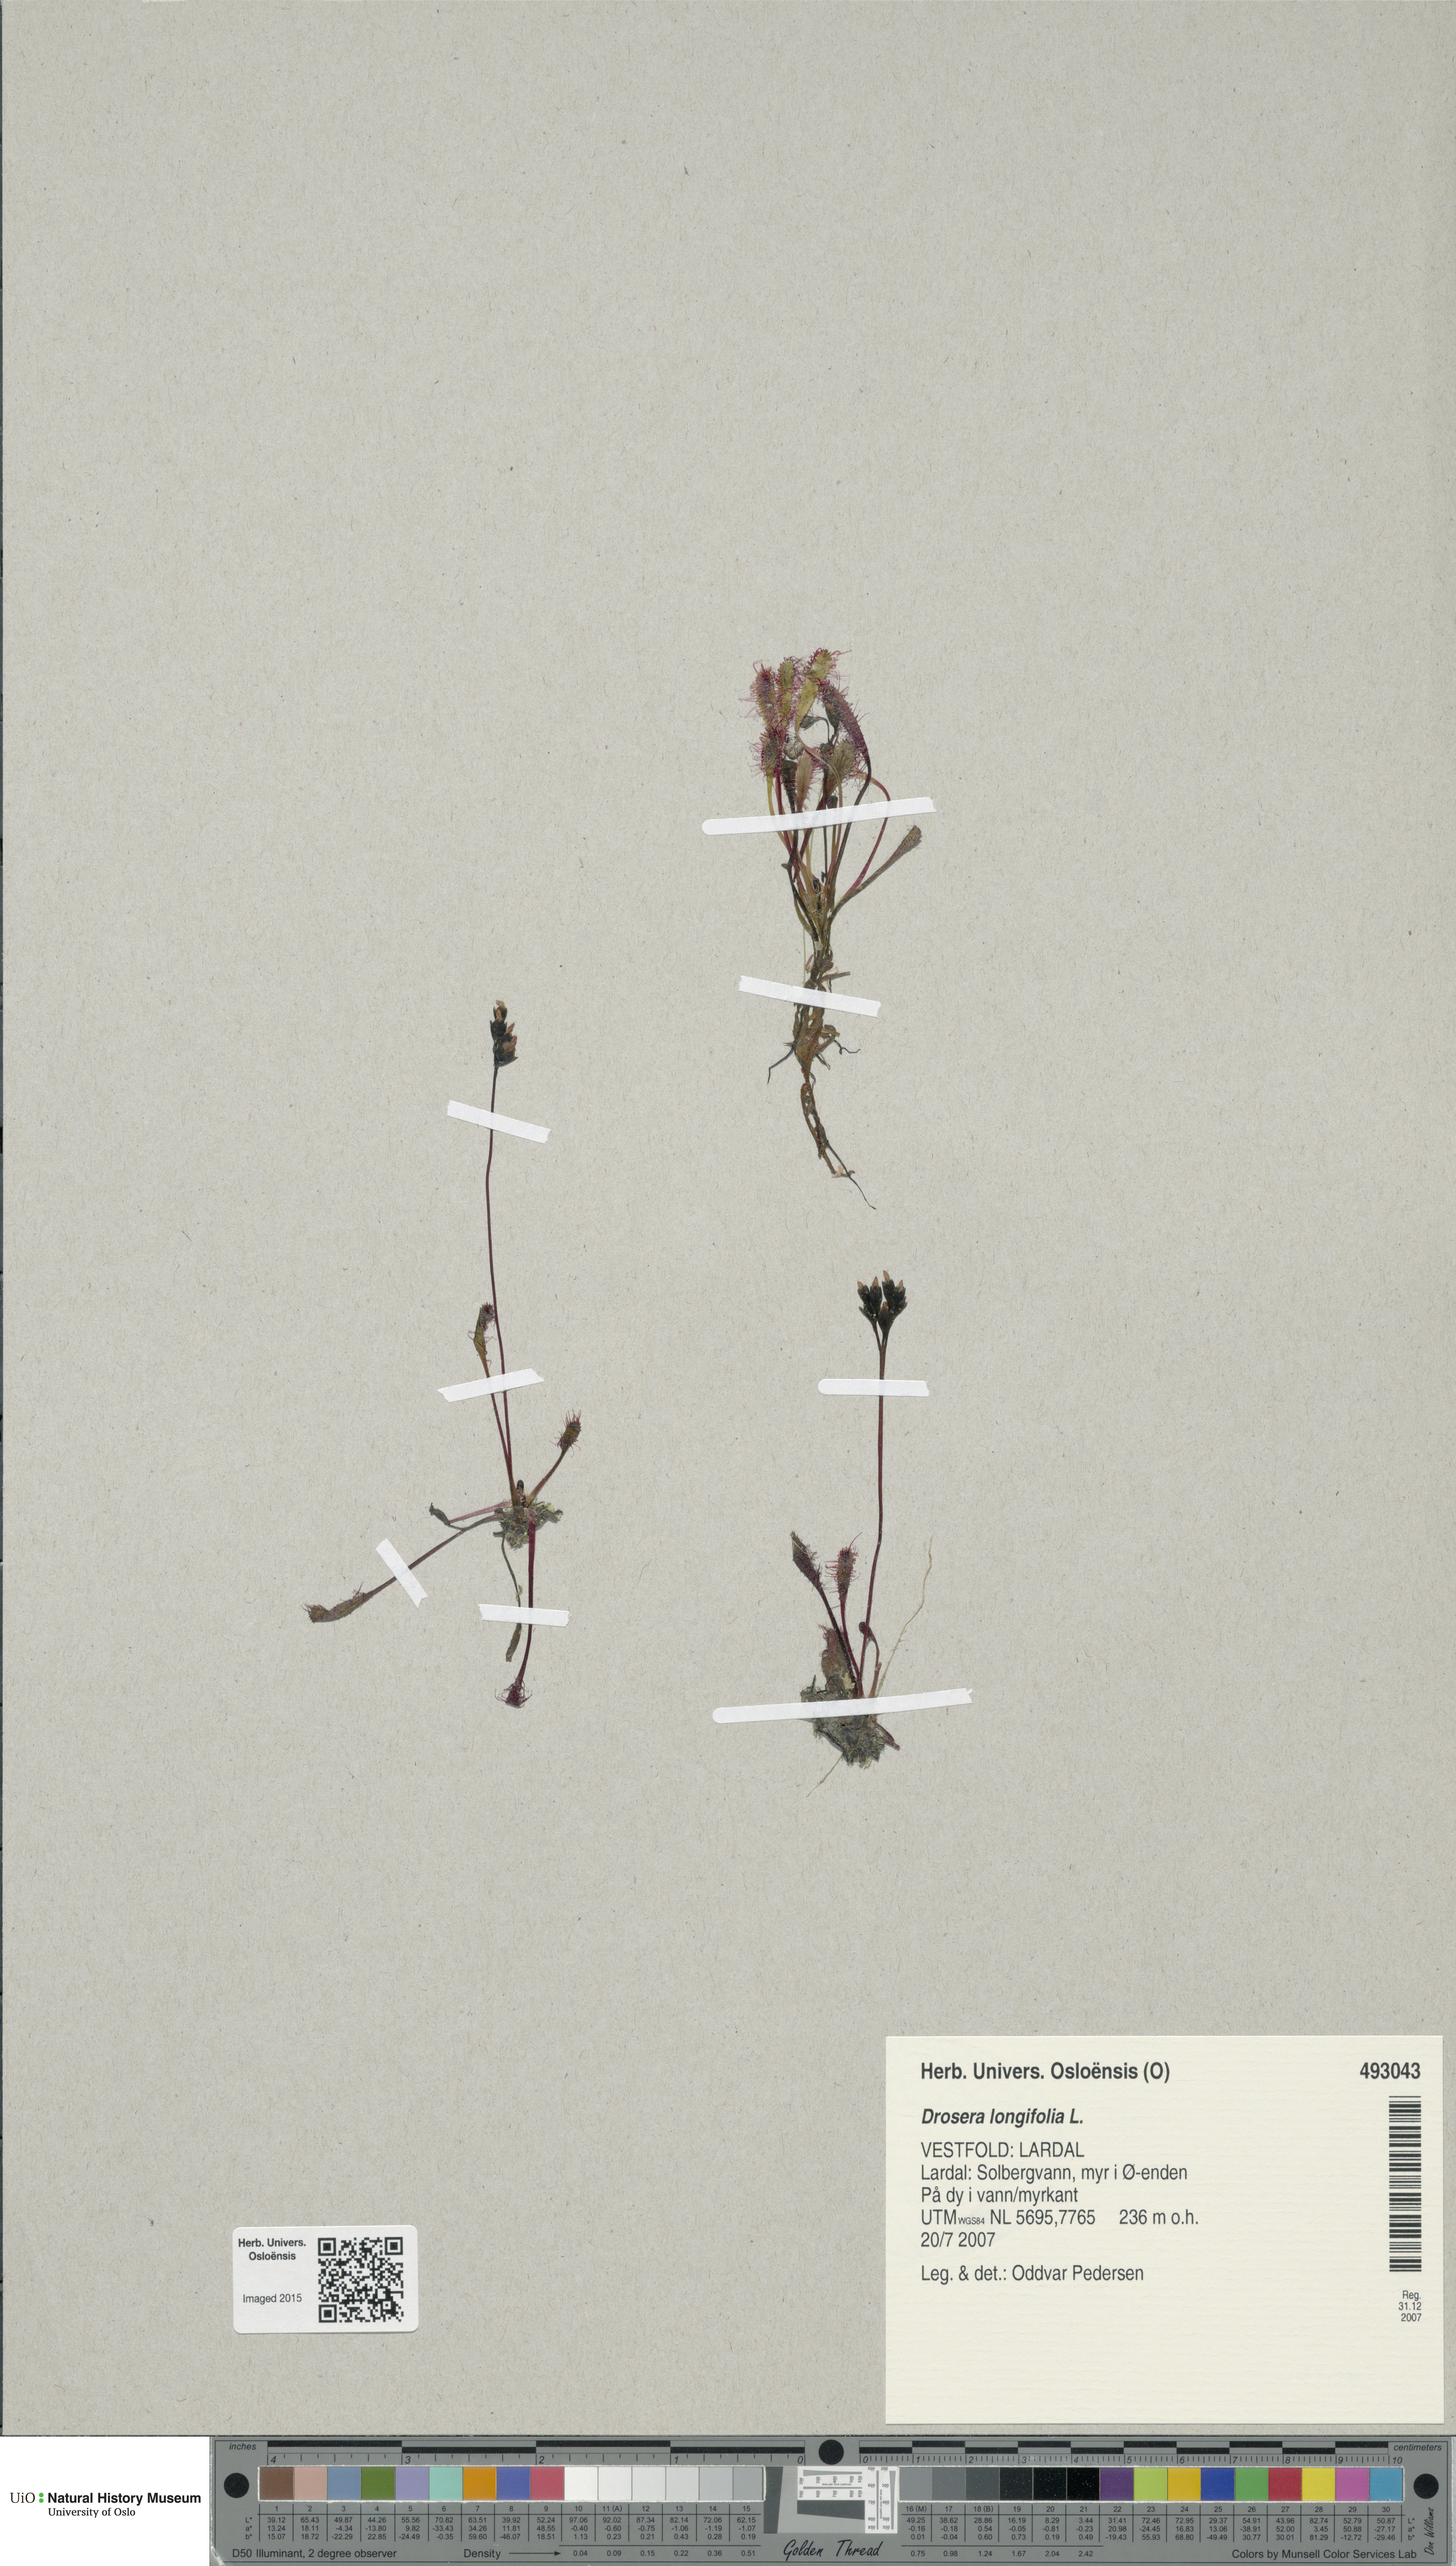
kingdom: Plantae
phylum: Tracheophyta
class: Magnoliopsida
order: Caryophyllales
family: Droseraceae
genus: Drosera
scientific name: Drosera anglica
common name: Great sundew
